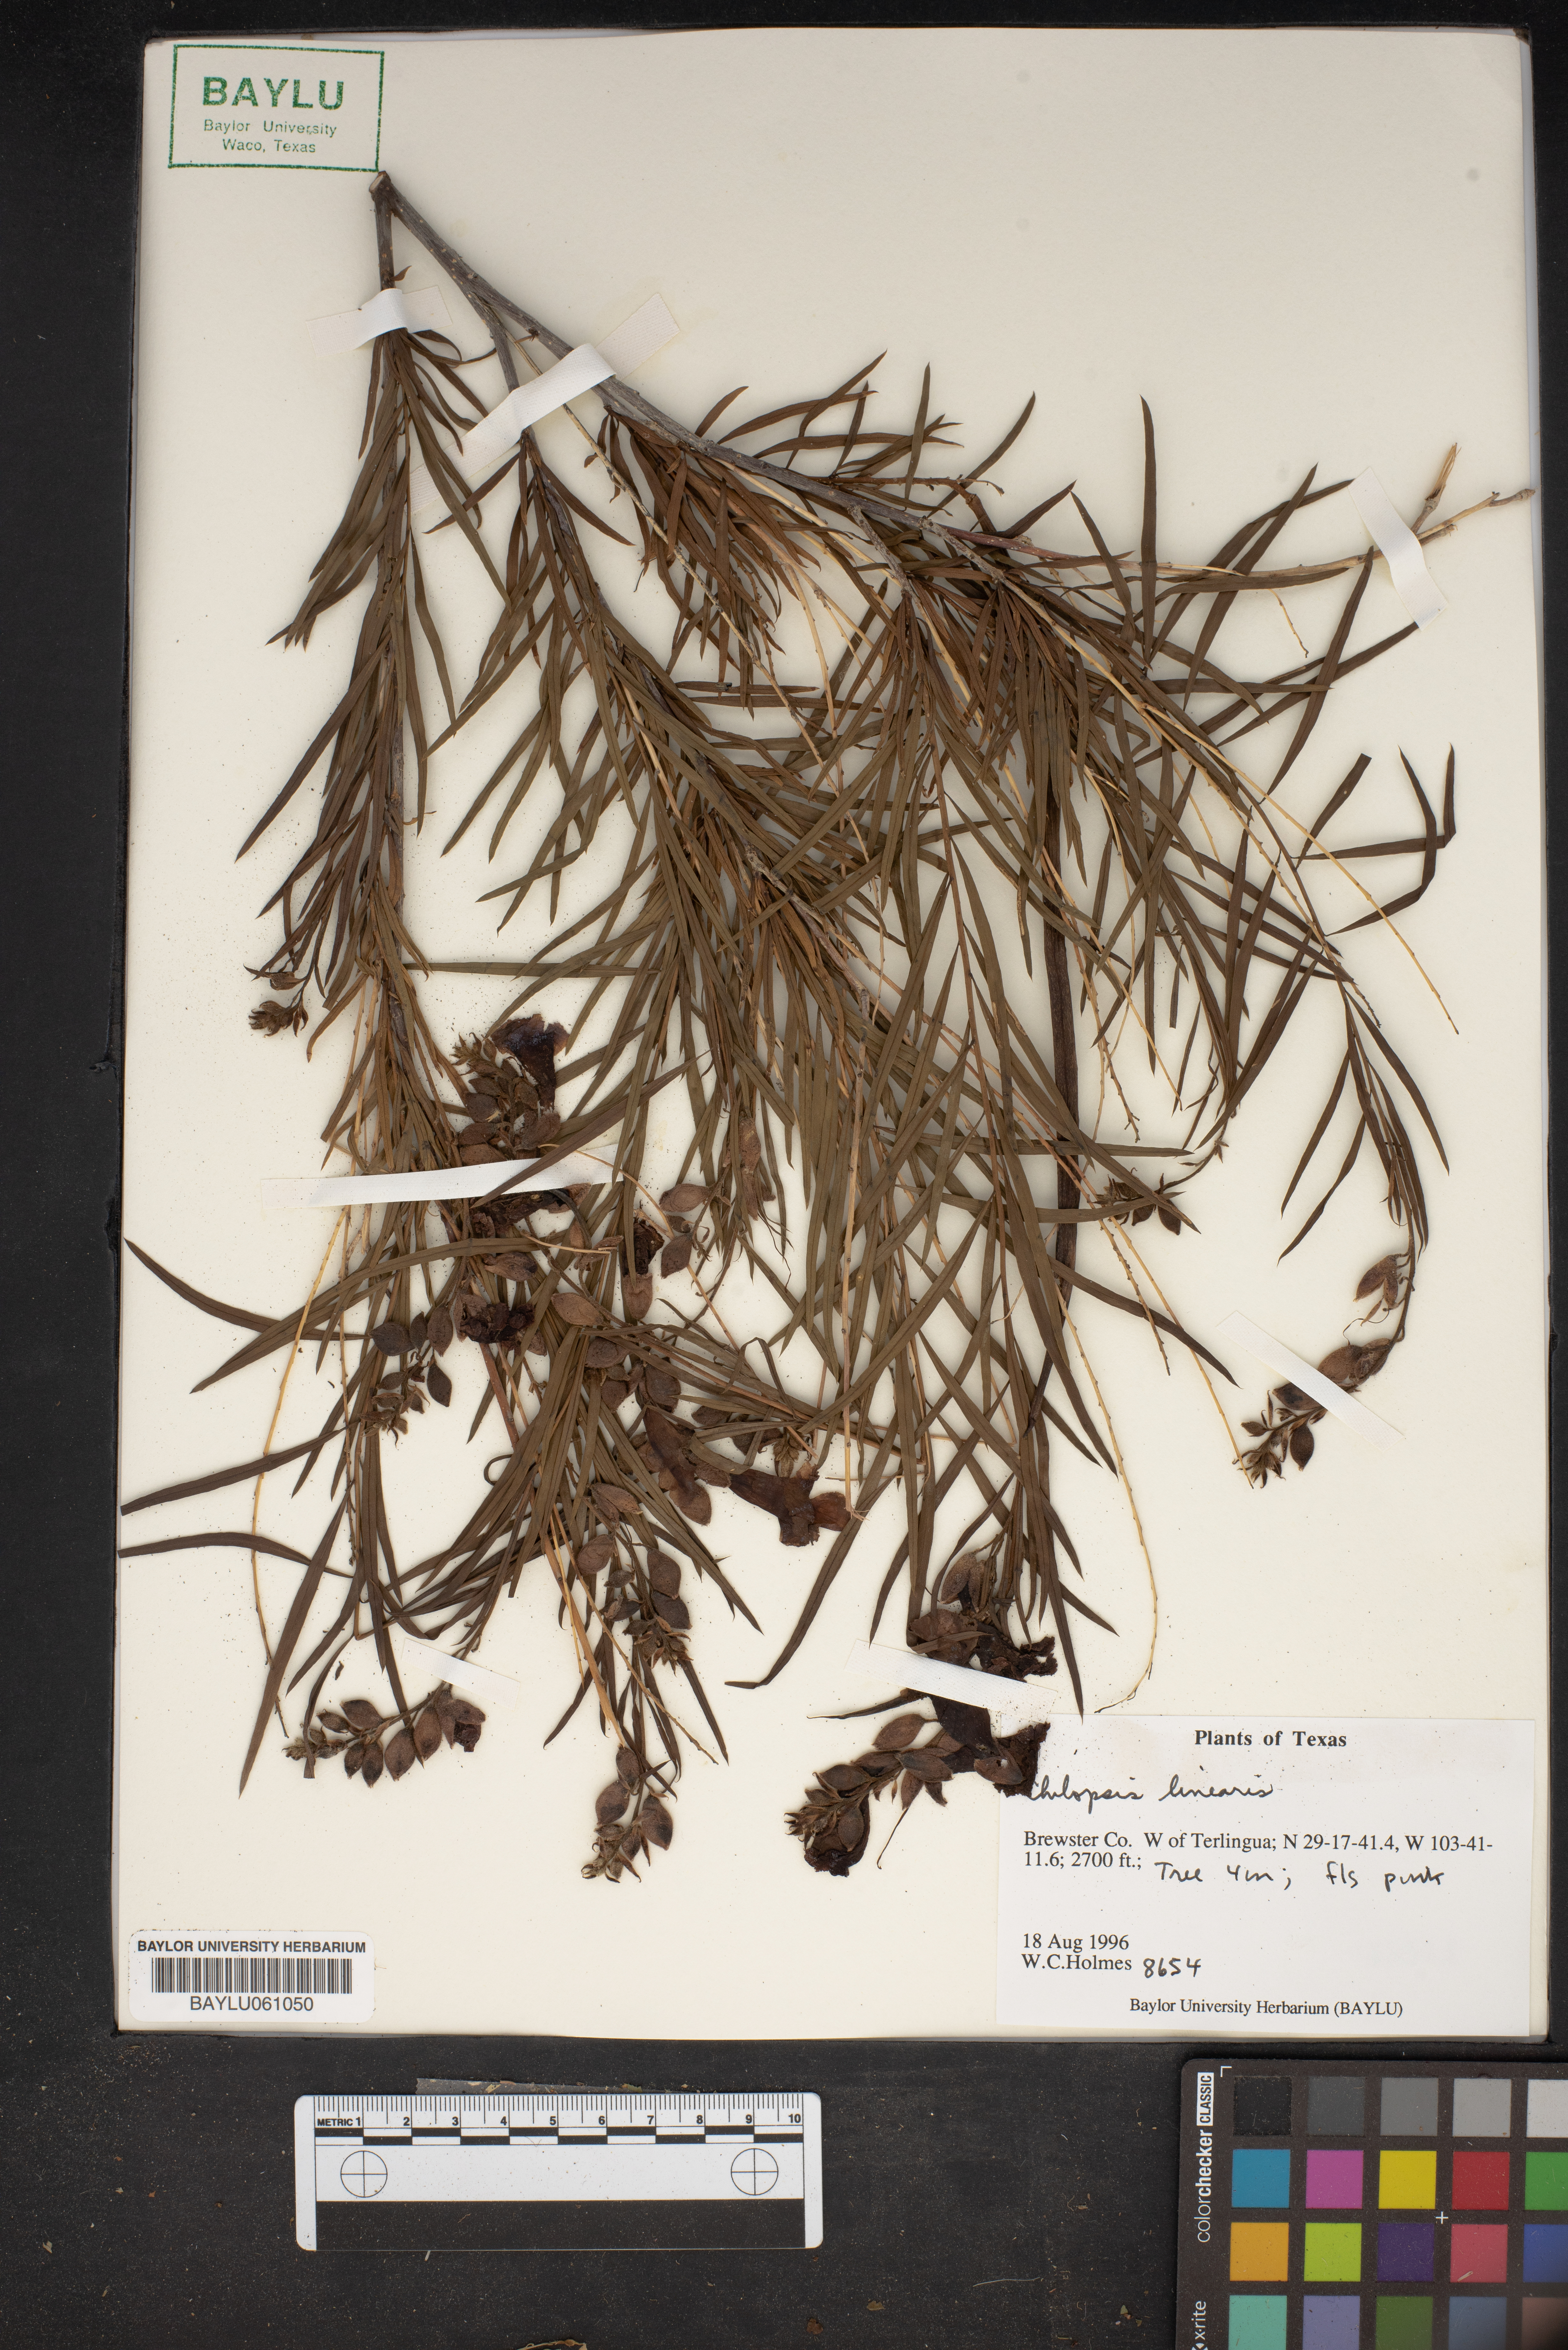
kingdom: Plantae
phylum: Tracheophyta
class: Magnoliopsida
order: Lamiales
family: Bignoniaceae
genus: Chilopsis
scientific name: Chilopsis linearis
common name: Desert-willow
